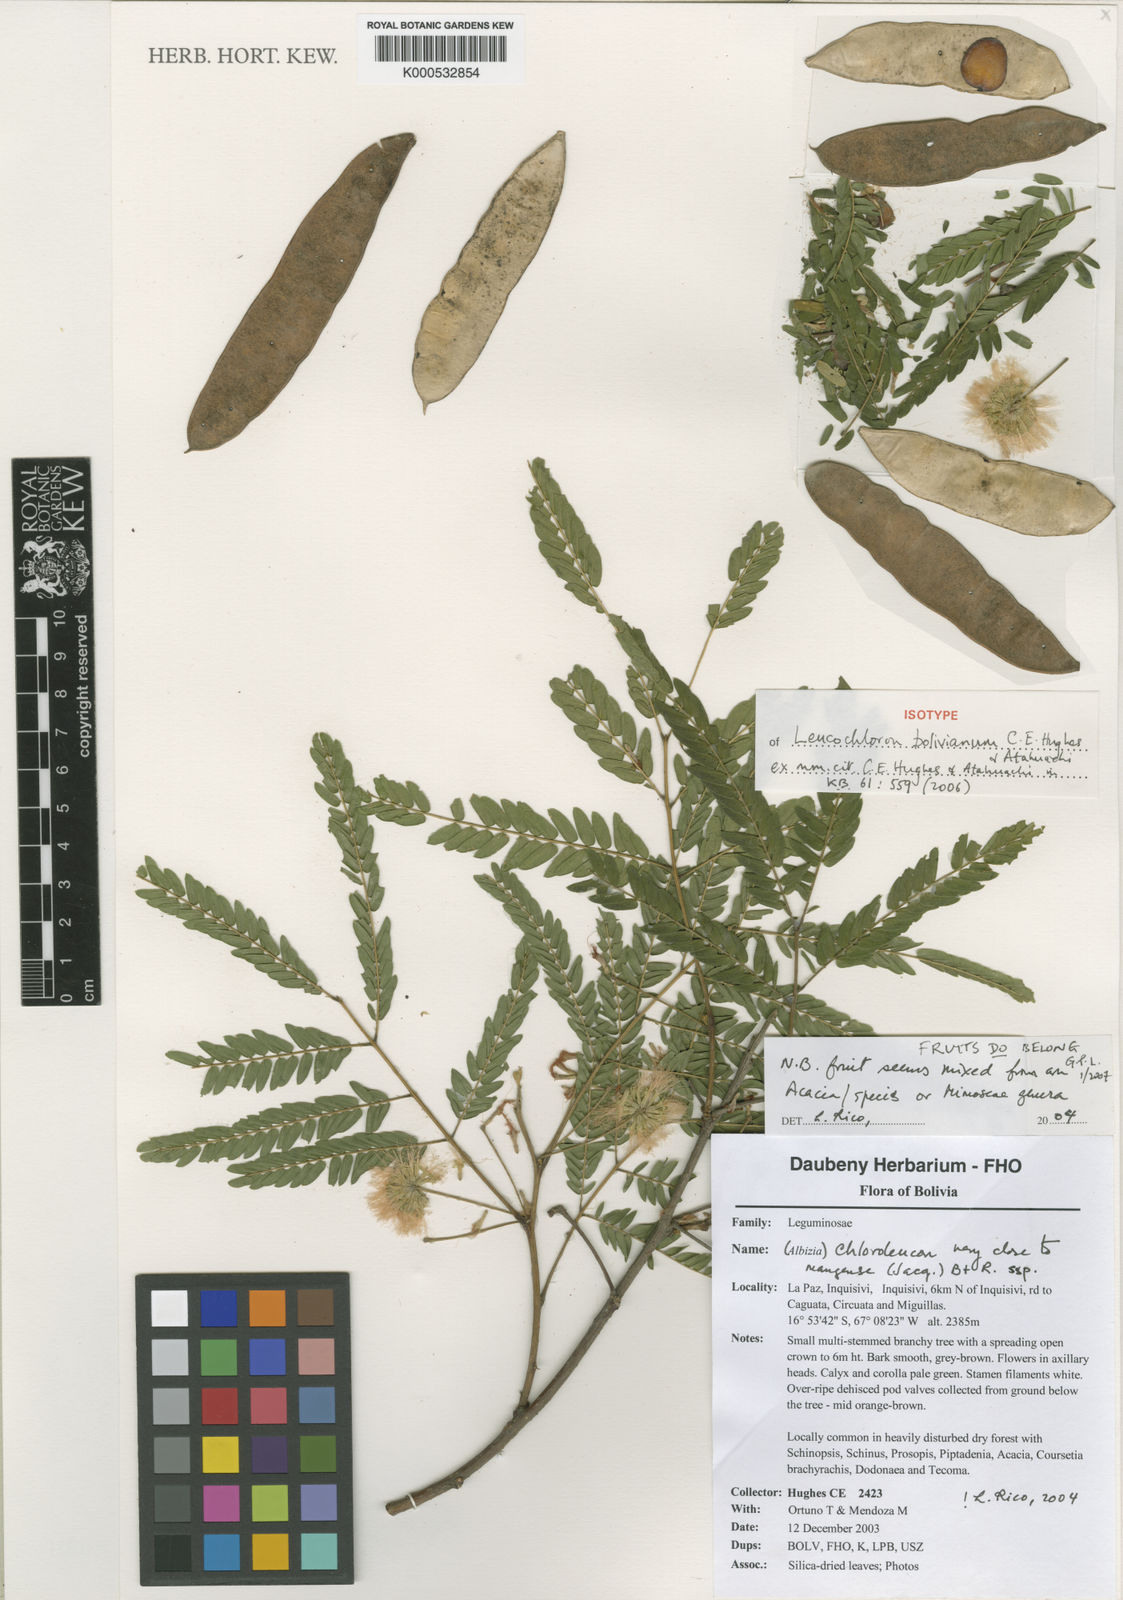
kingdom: Plantae
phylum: Tracheophyta
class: Magnoliopsida
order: Fabales
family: Fabaceae
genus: Leucochloron
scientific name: Leucochloron bolivianum
